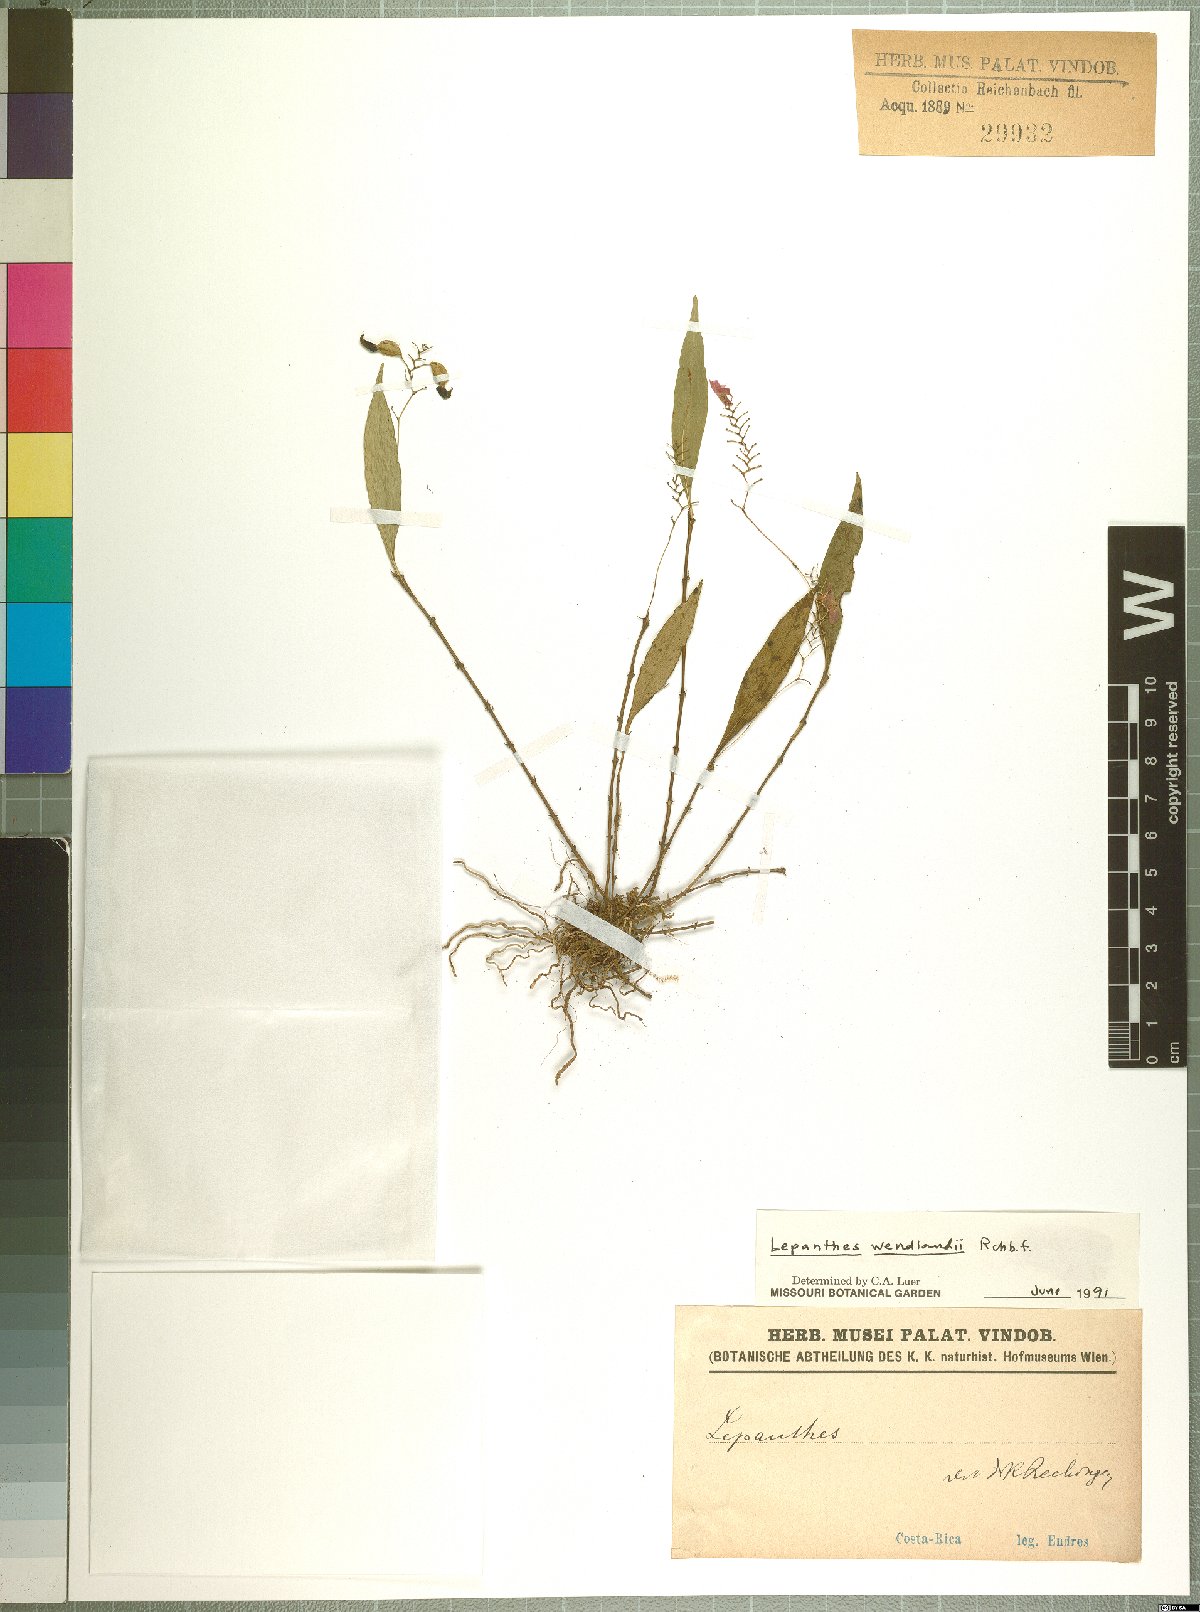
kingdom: Plantae
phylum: Tracheophyta
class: Liliopsida
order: Asparagales
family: Orchidaceae
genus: Lepanthes
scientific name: Lepanthes wendlandii
